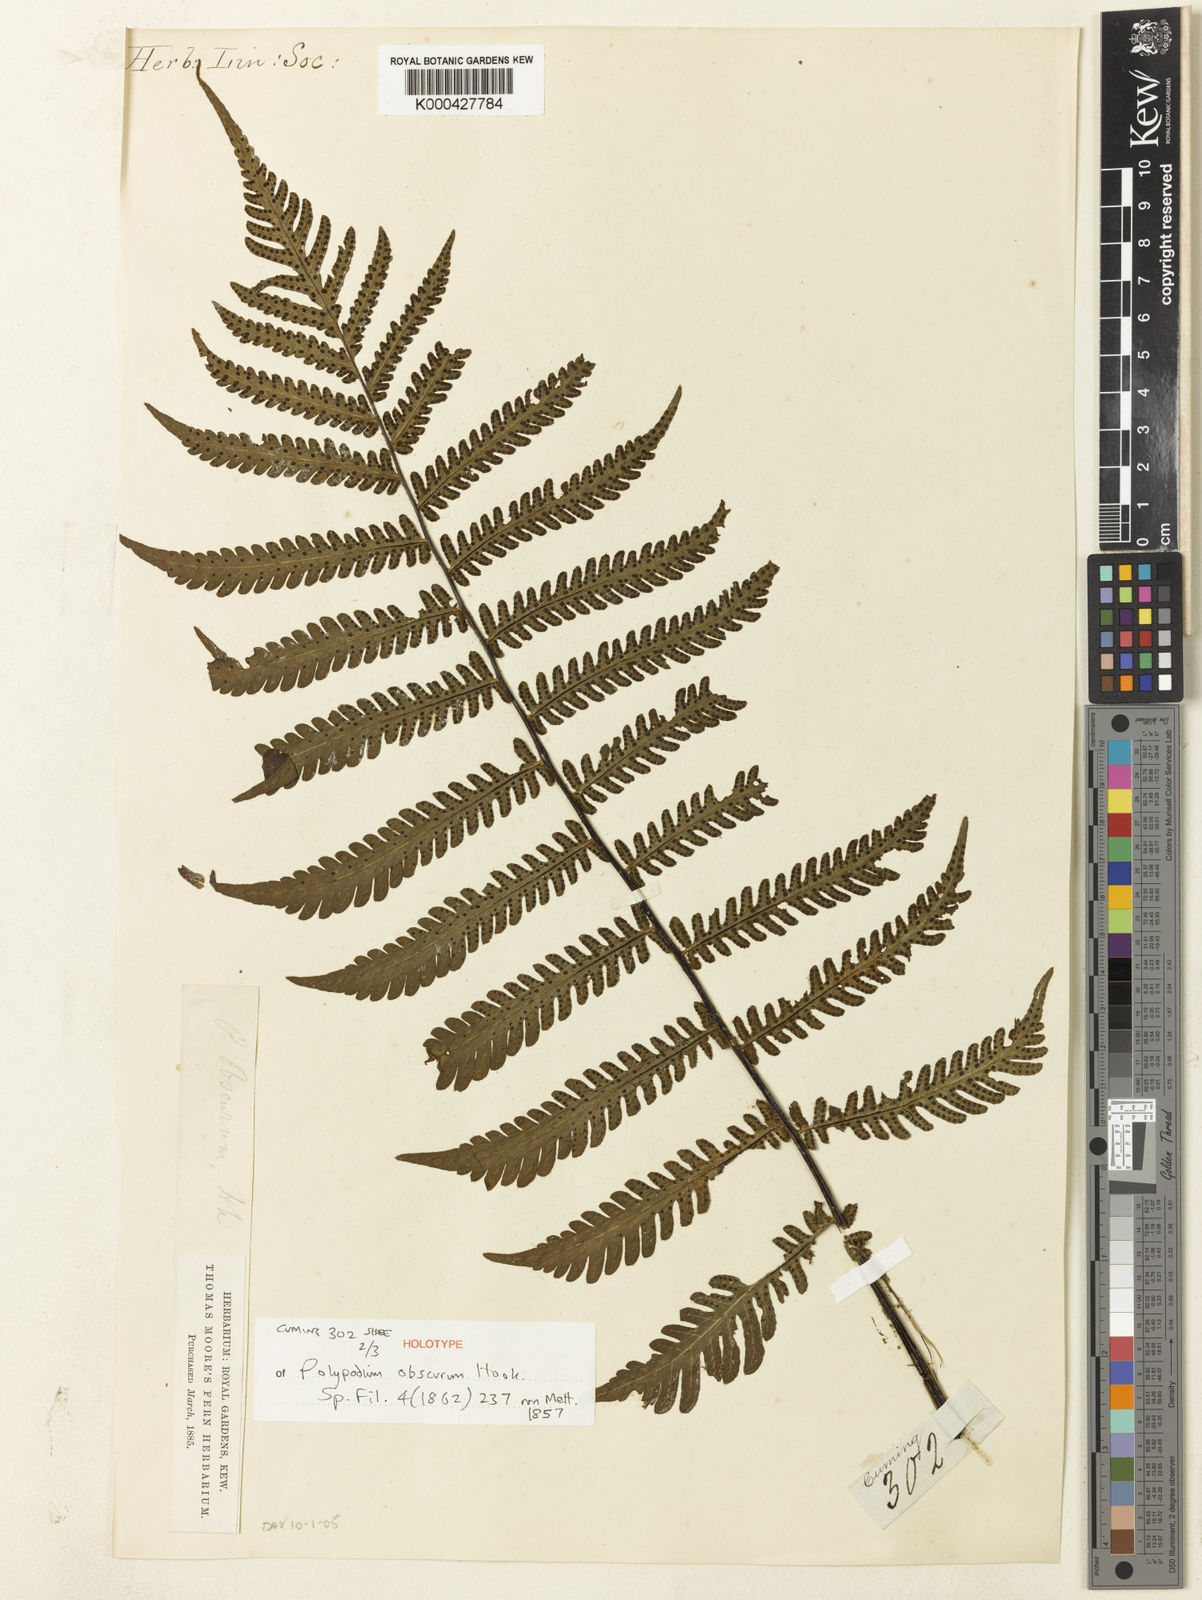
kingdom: Plantae
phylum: Tracheophyta
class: Polypodiopsida
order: Polypodiales
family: Tectariaceae
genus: Tectaria
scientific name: Tectaria sagenioides
